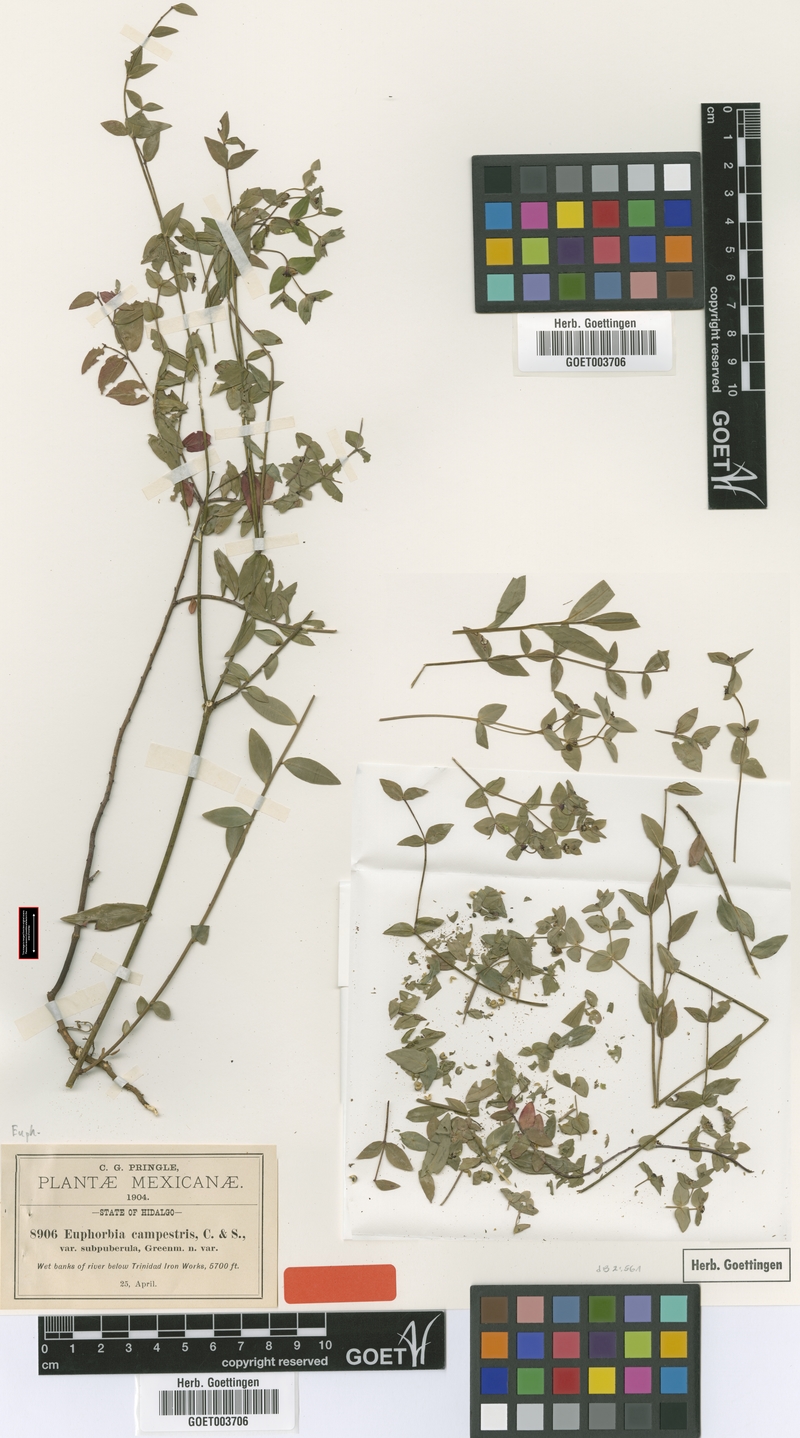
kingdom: Plantae
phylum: Tracheophyta
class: Magnoliopsida
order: Malpighiales
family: Euphorbiaceae
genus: Euphorbia
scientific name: Euphorbia orizabae
